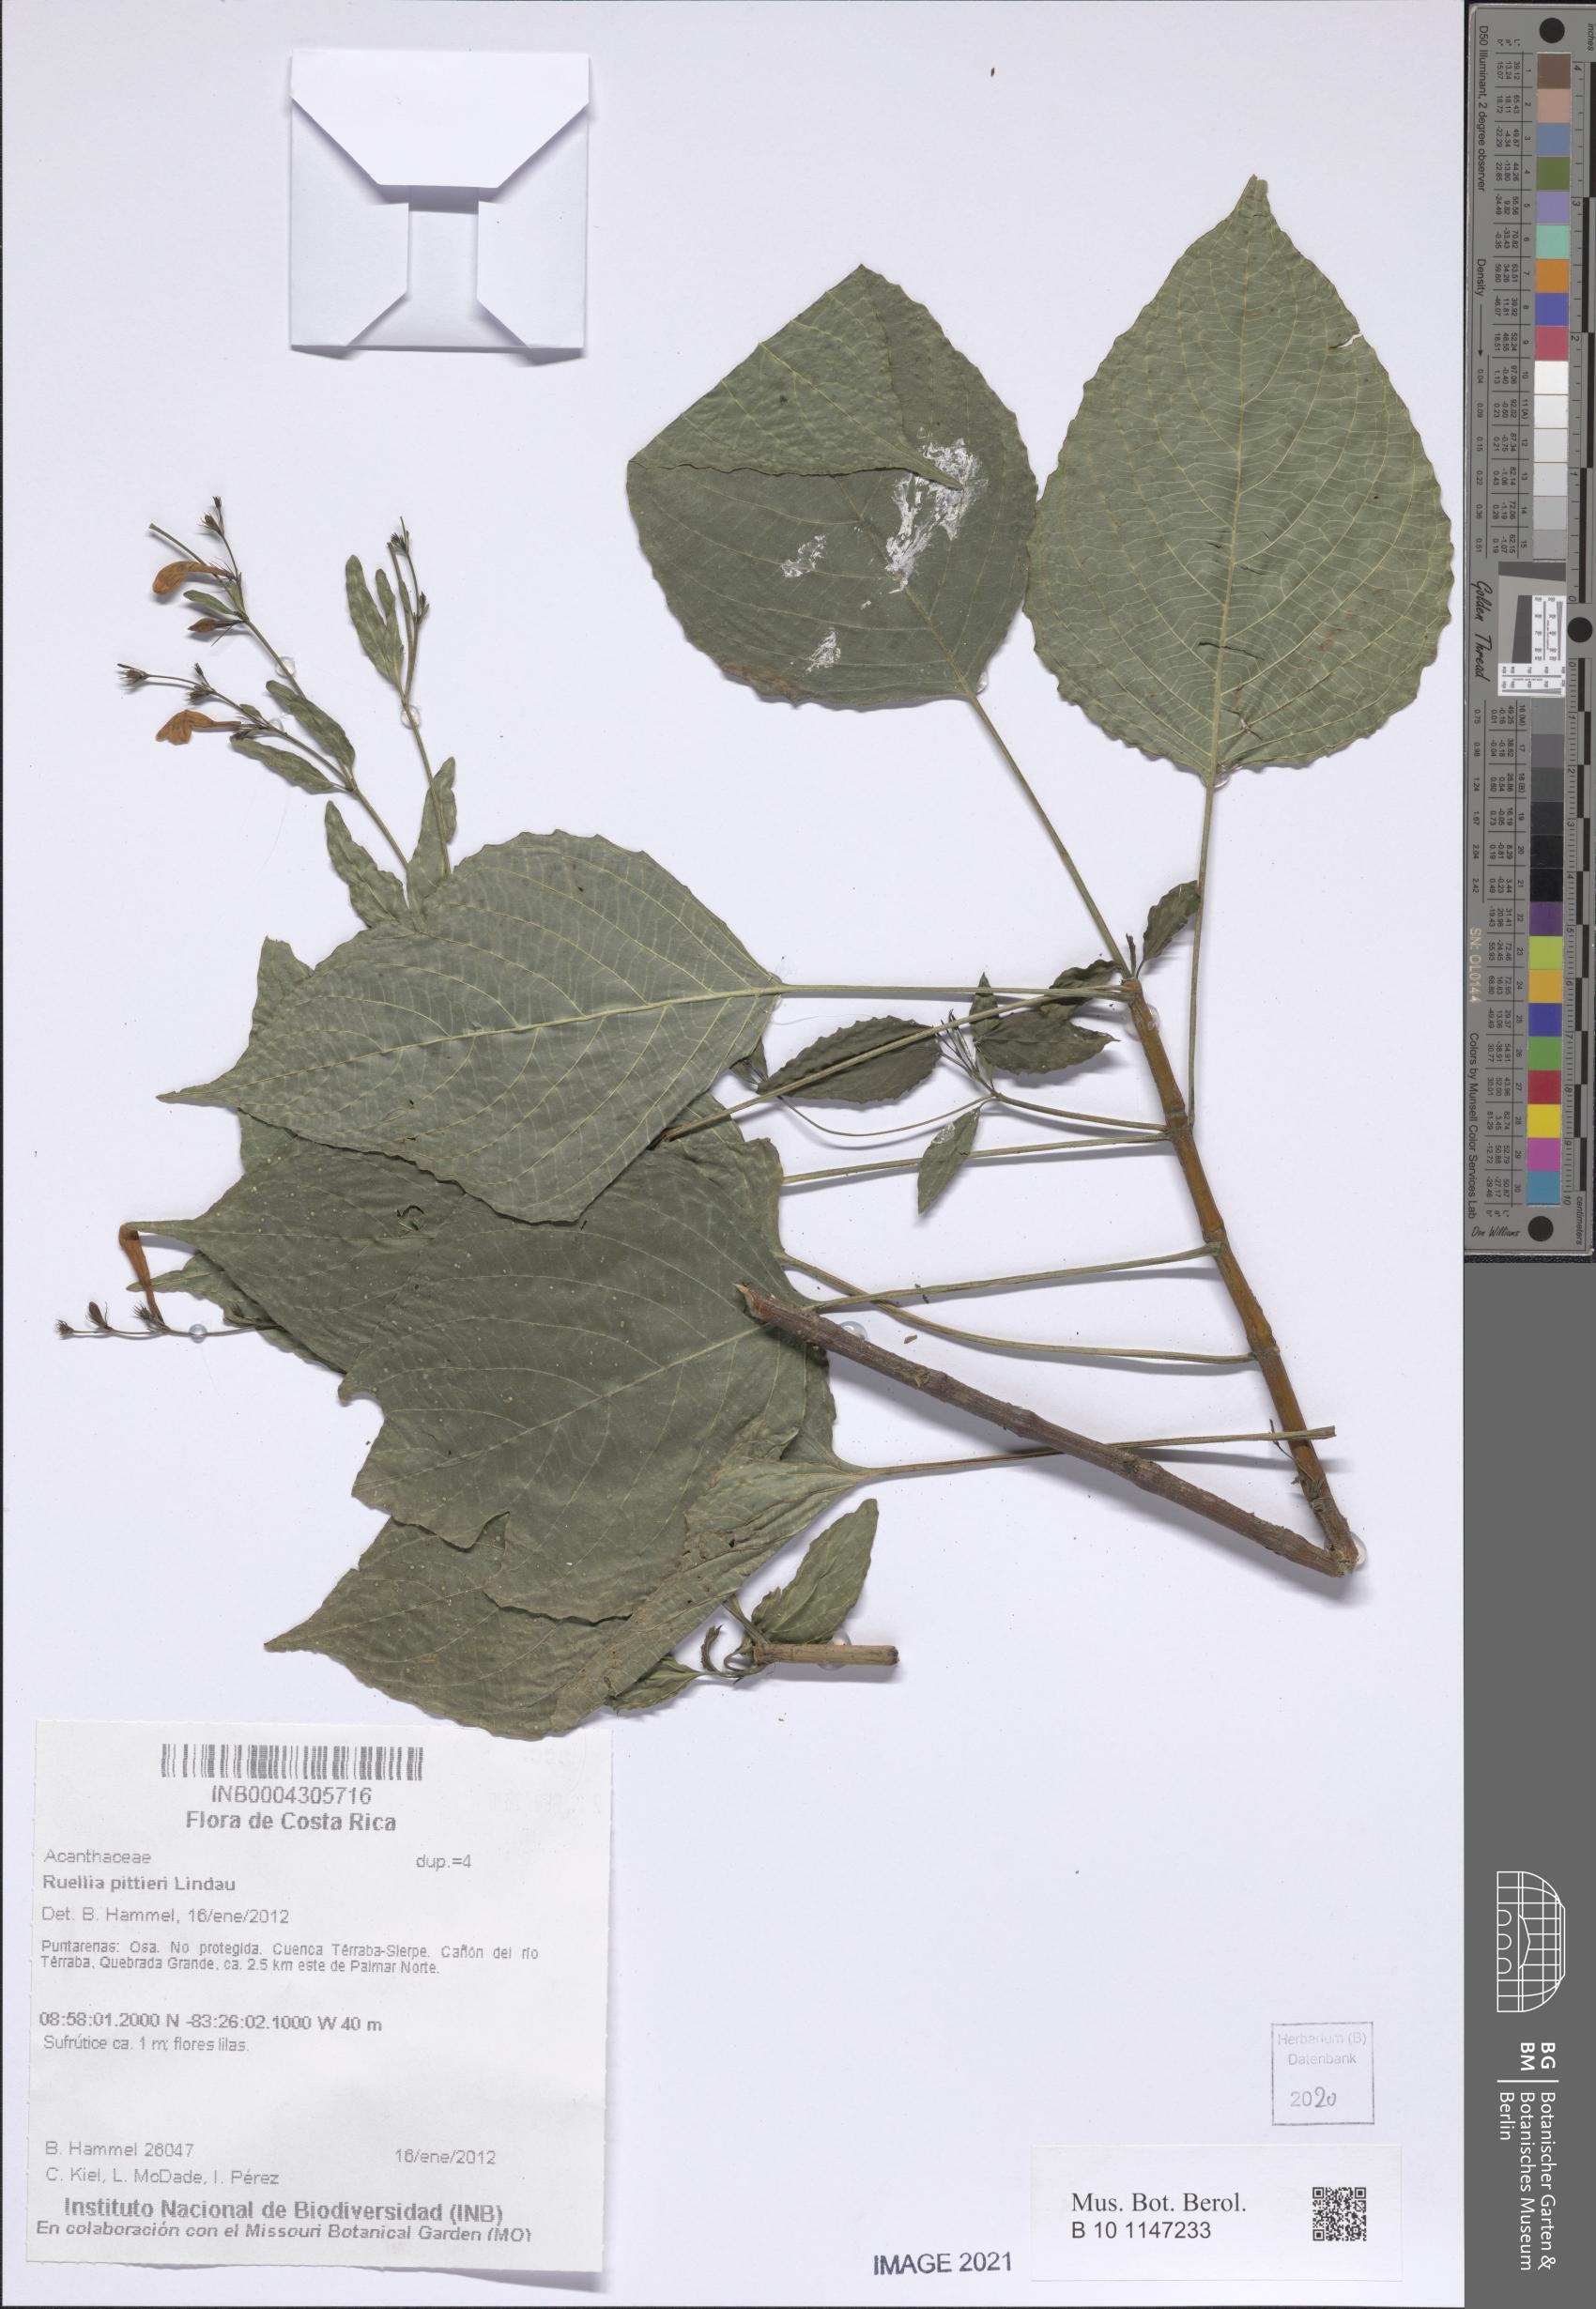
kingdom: Plantae
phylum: Tracheophyta
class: Magnoliopsida
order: Lamiales
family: Acanthaceae
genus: Ruellia
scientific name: Ruellia pittieri
